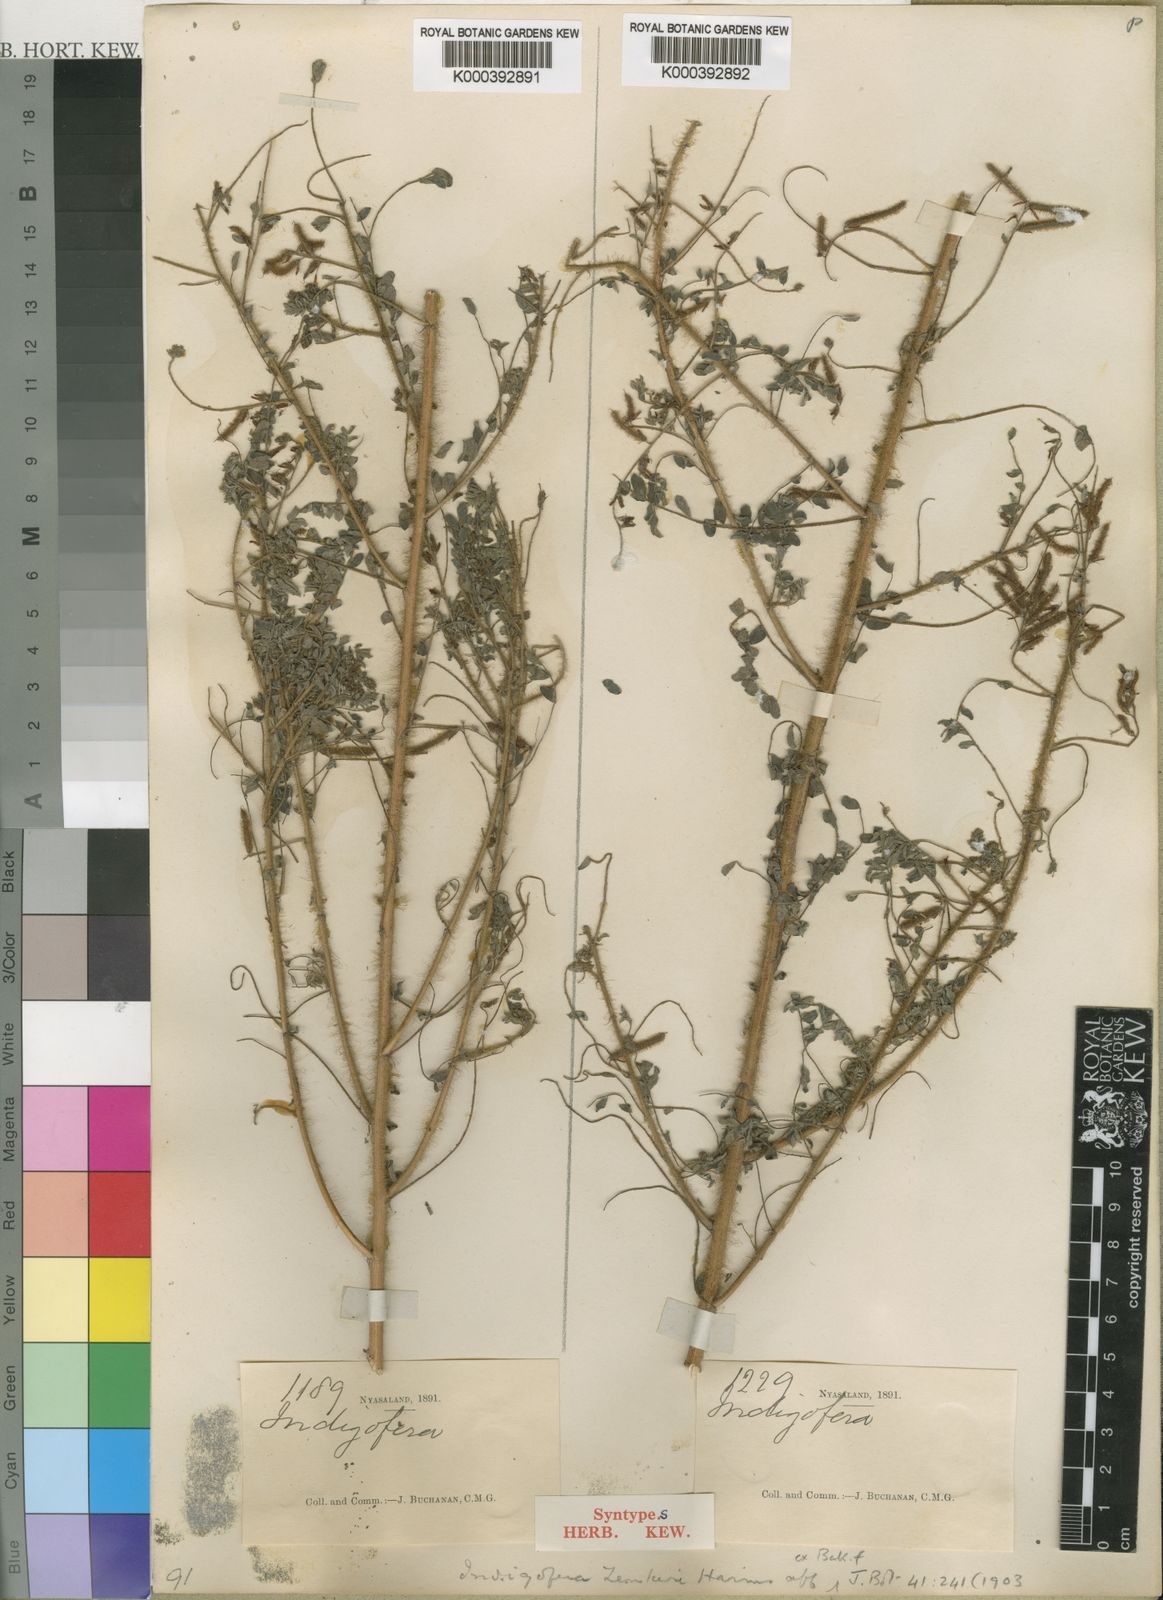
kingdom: Plantae
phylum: Tracheophyta
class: Magnoliopsida
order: Fabales
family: Fabaceae
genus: Indigofera
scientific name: Indigofera zenkeri
